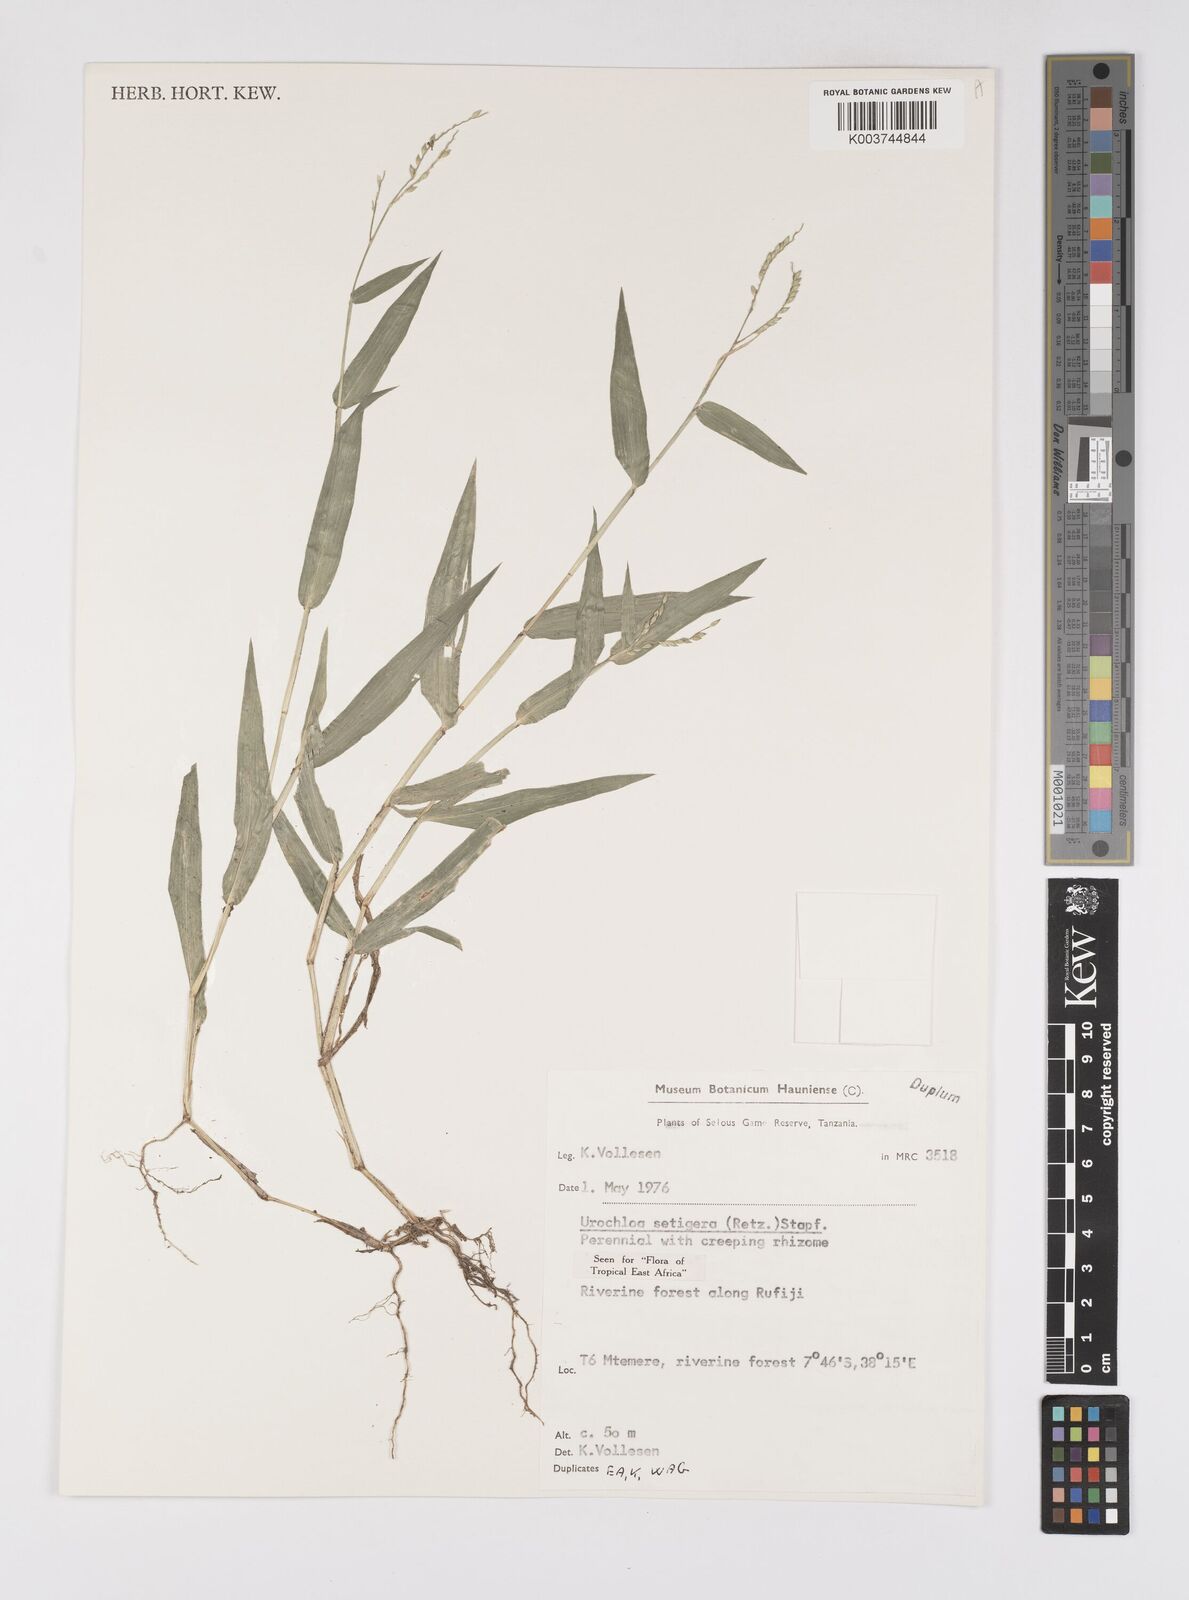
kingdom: Plantae
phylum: Tracheophyta
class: Liliopsida
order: Poales
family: Poaceae
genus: Urochloa
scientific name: Urochloa trichopodioides
